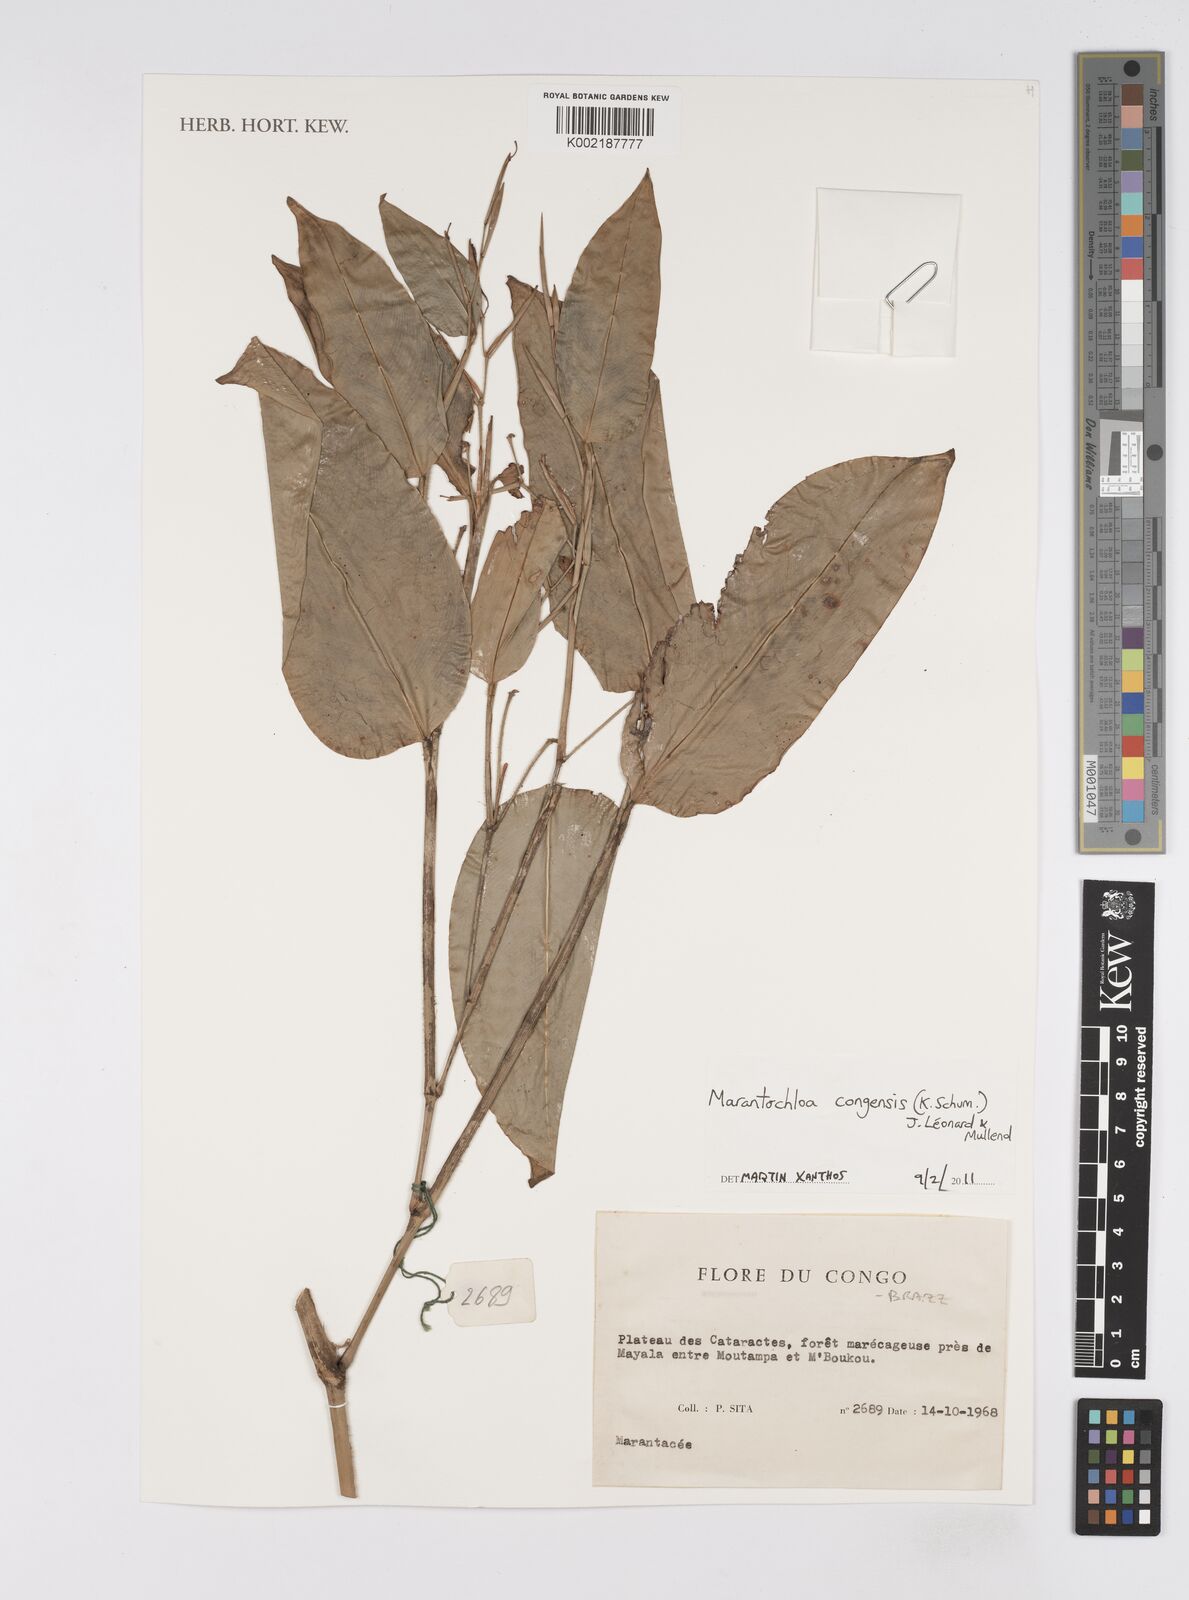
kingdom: Plantae
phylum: Tracheophyta
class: Liliopsida
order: Zingiberales
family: Marantaceae
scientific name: Marantaceae
